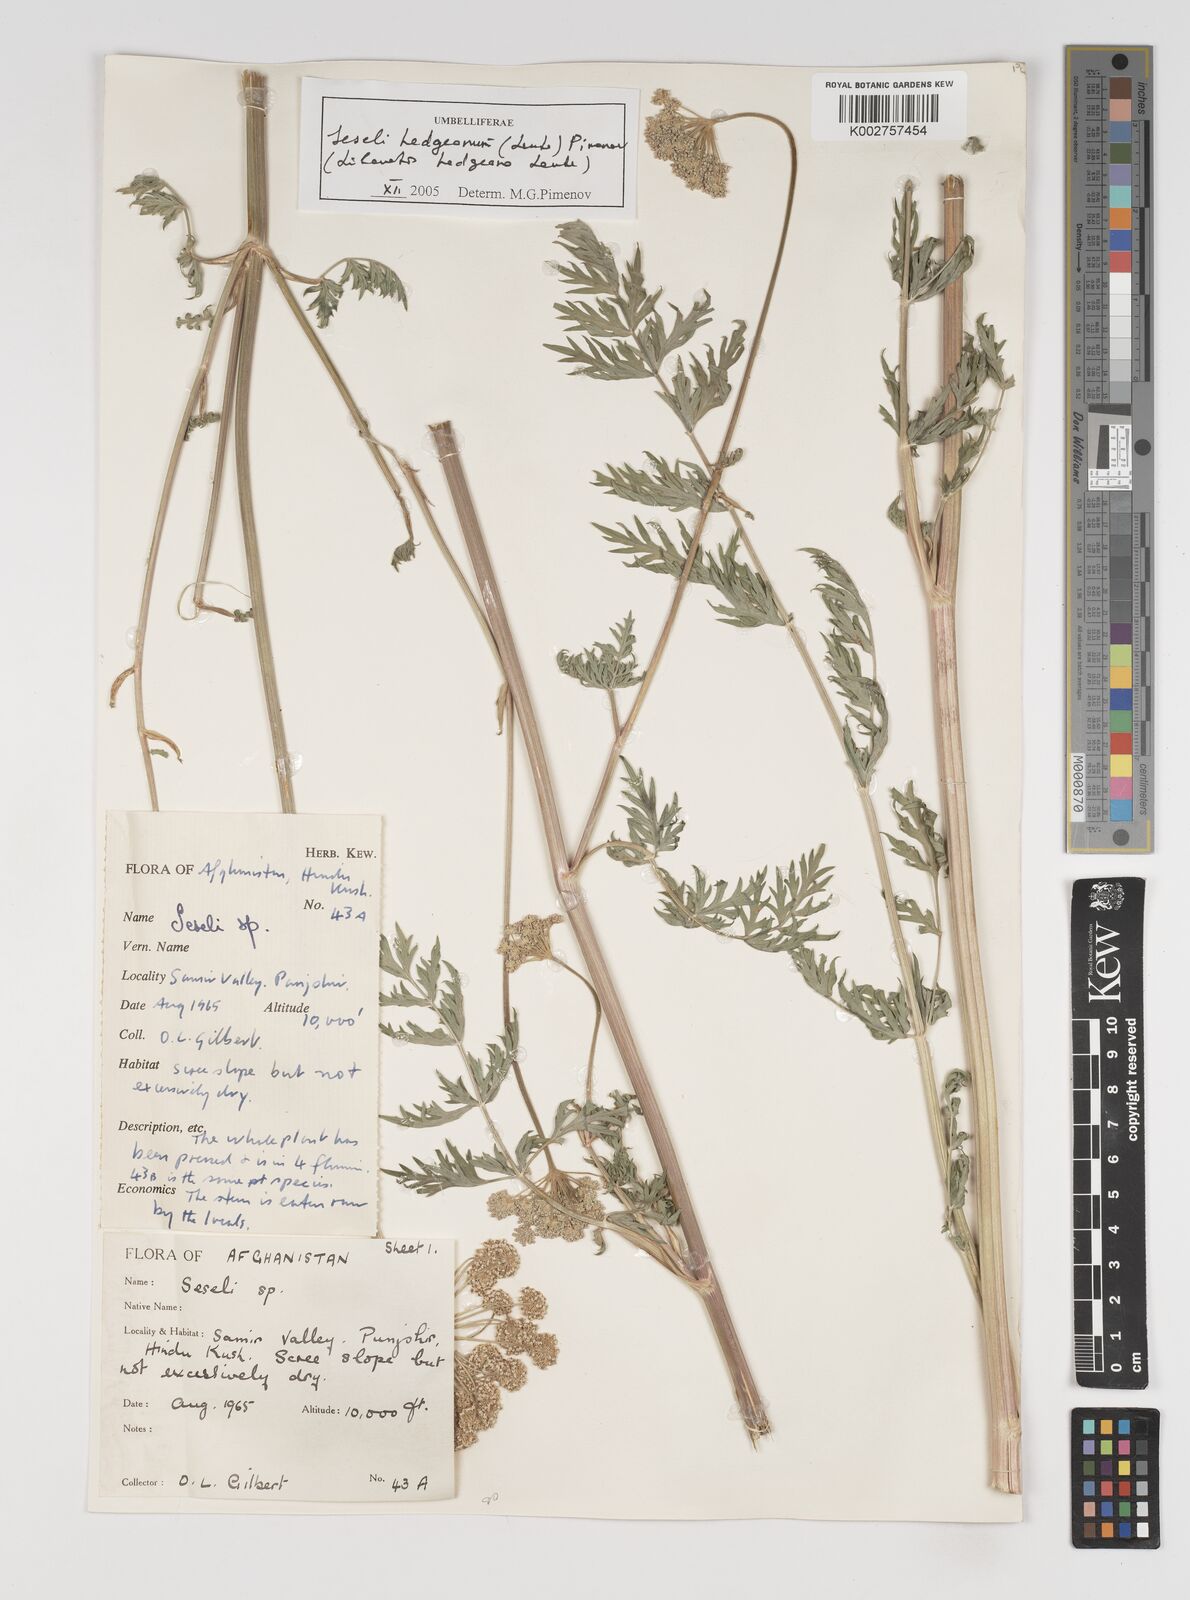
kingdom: Plantae
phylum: Tracheophyta
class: Magnoliopsida
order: Apiales
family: Apiaceae
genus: Seseli
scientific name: Seseli
